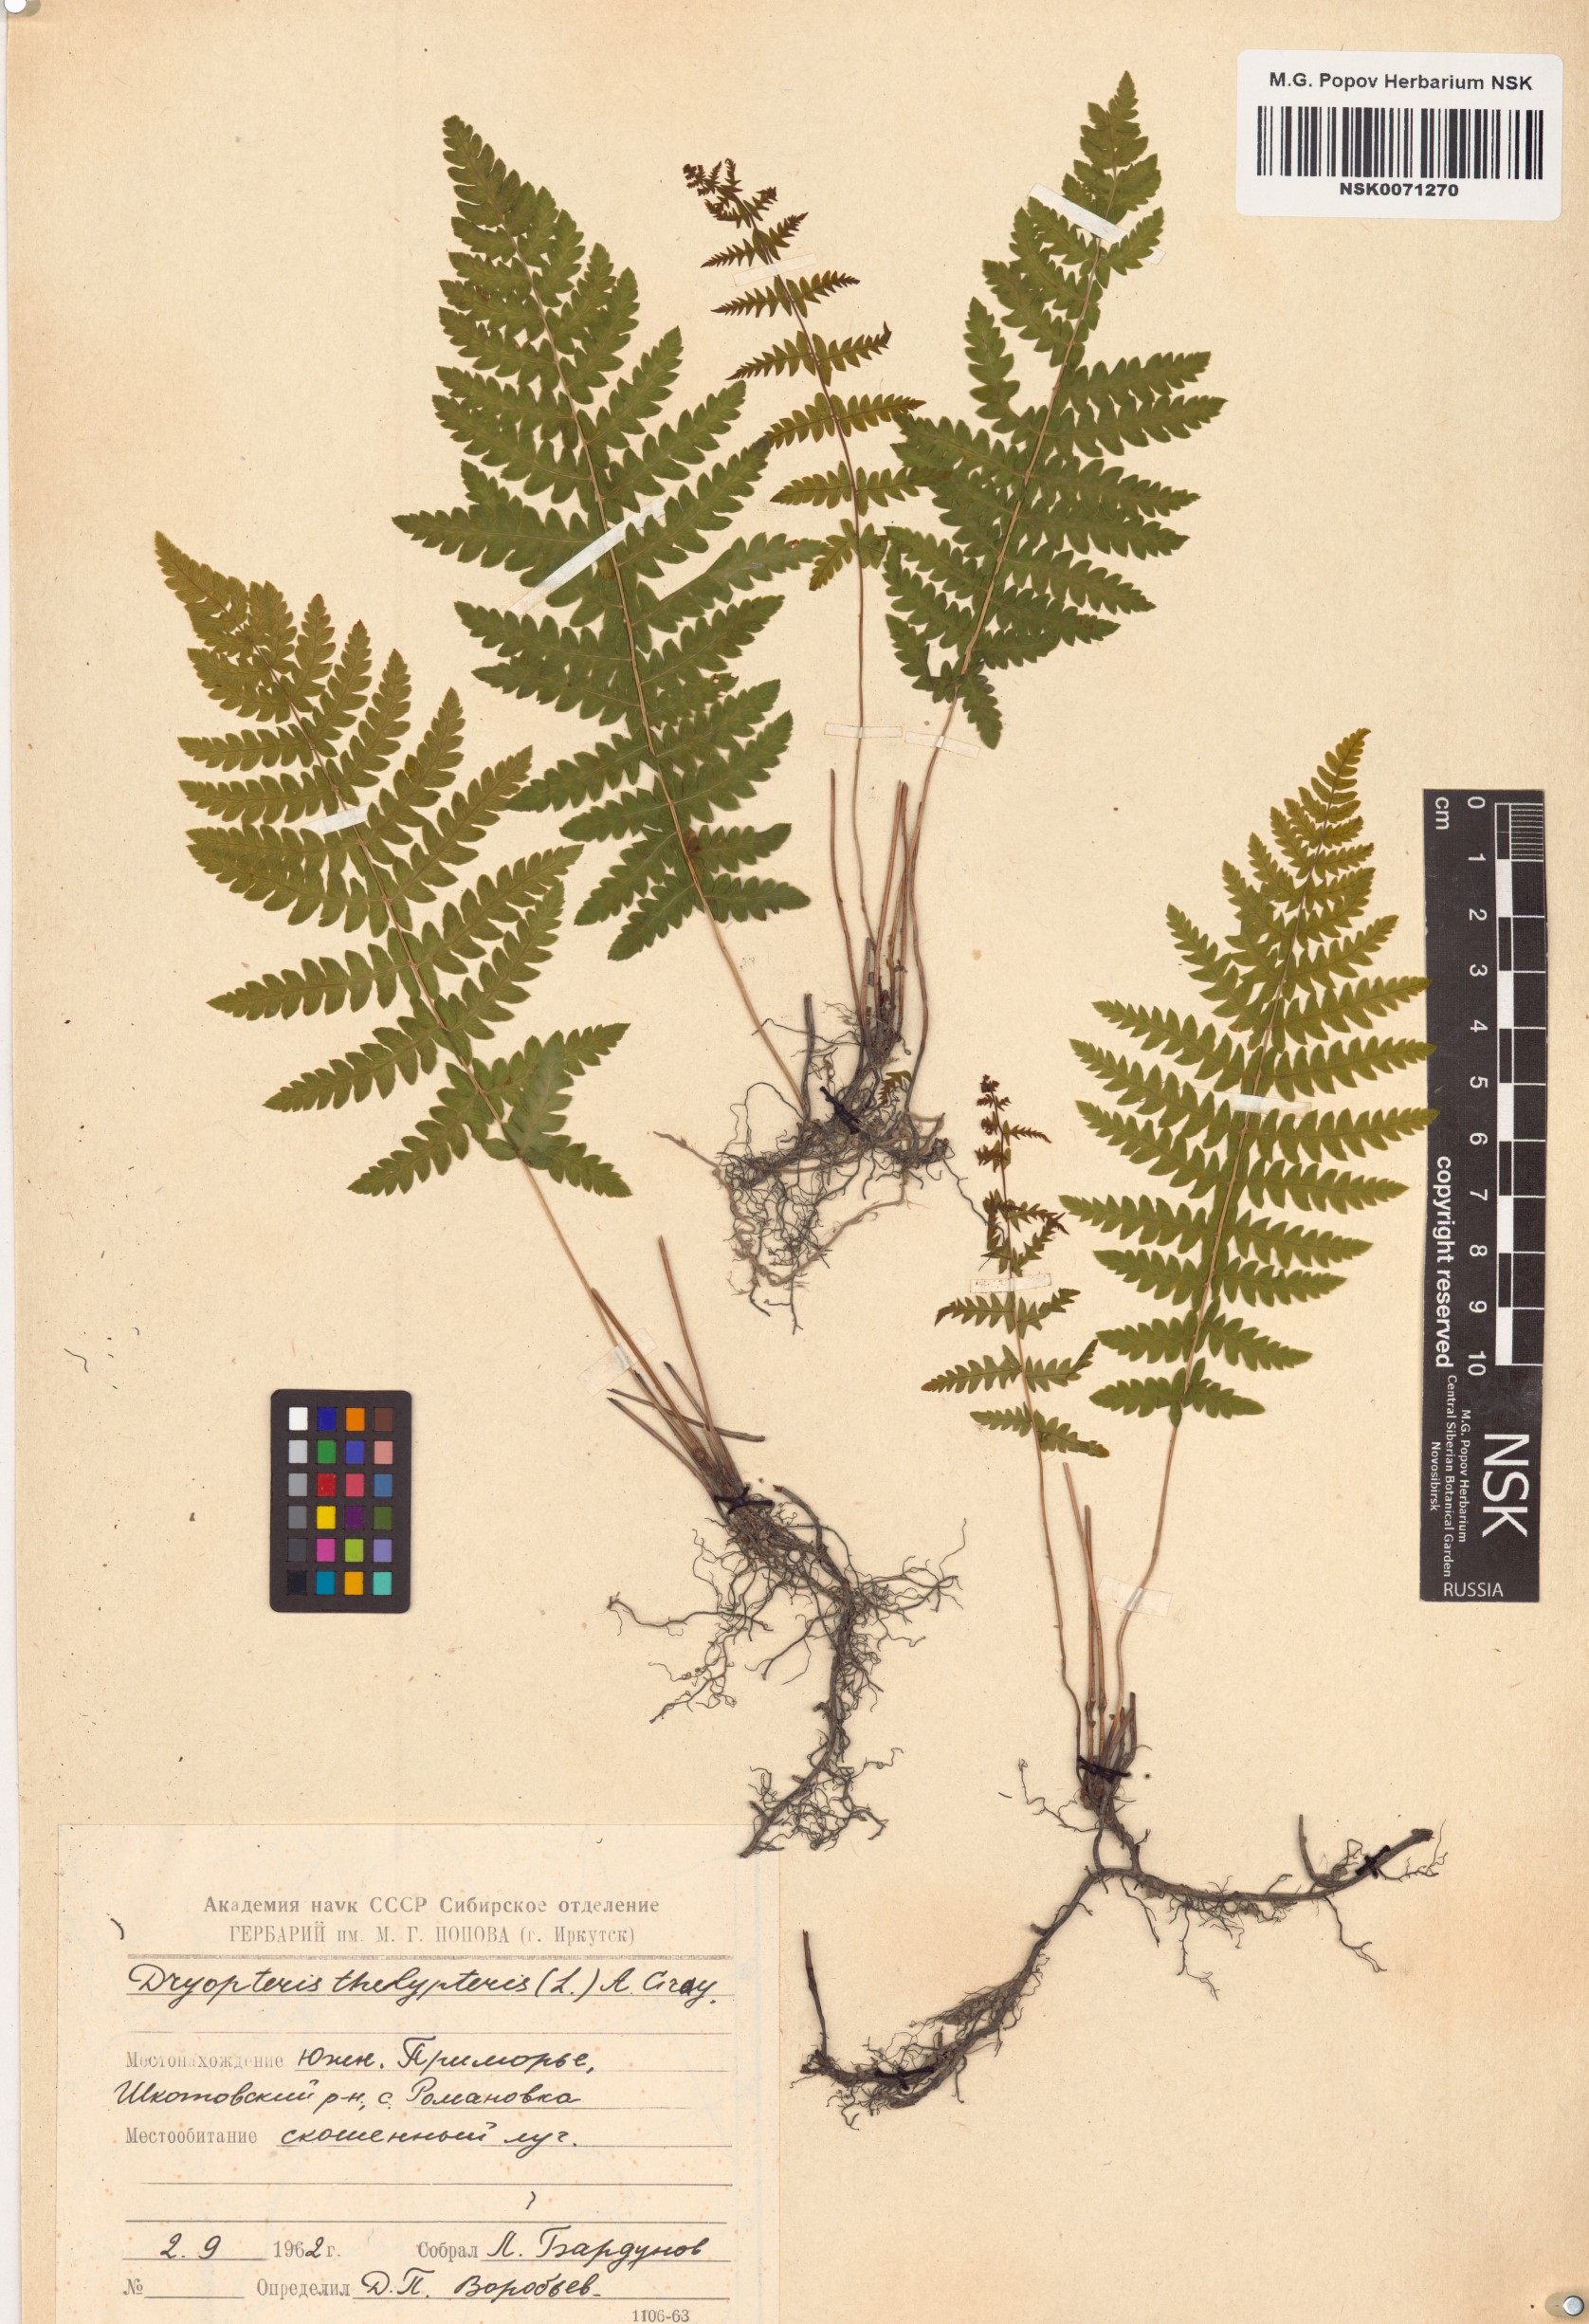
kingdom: Plantae
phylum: Tracheophyta
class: Polypodiopsida
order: Polypodiales
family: Thelypteridaceae
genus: Thelypteris
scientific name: Thelypteris palustris
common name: Marsh fern
